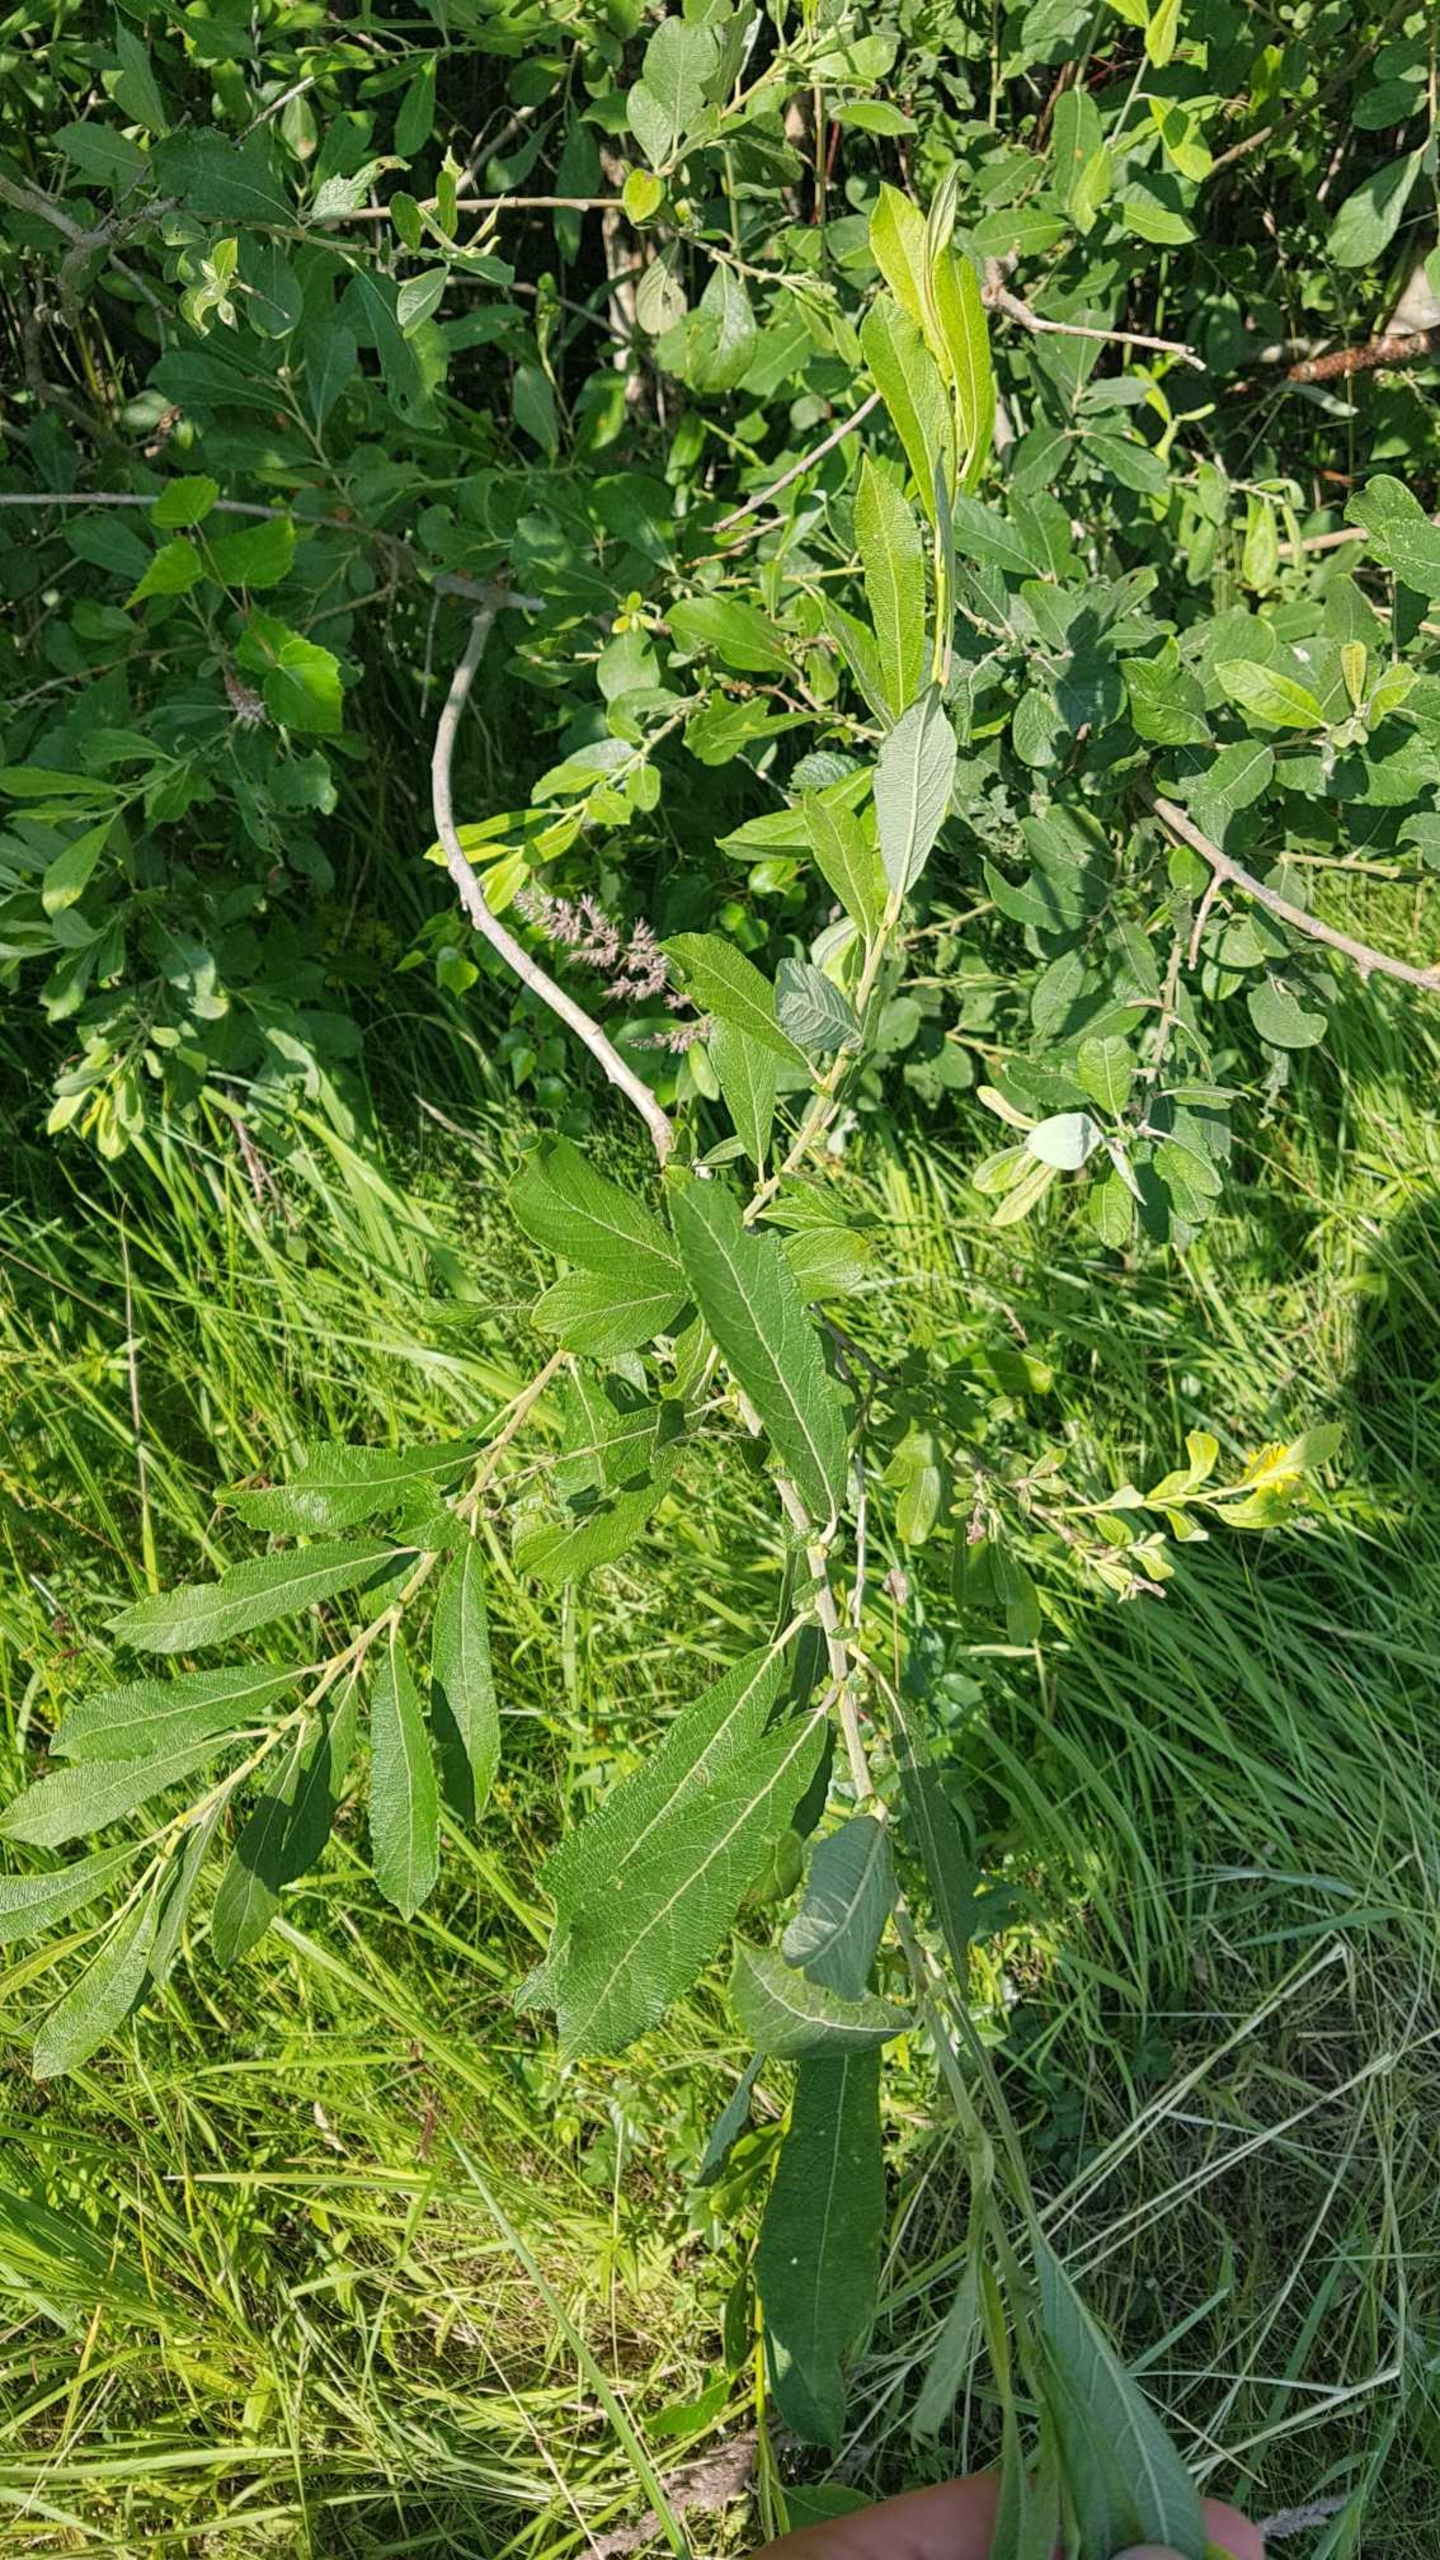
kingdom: Plantae
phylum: Tracheophyta
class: Magnoliopsida
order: Malpighiales
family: Salicaceae
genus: Salix
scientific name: Salix cinerea
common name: Grå-pil
